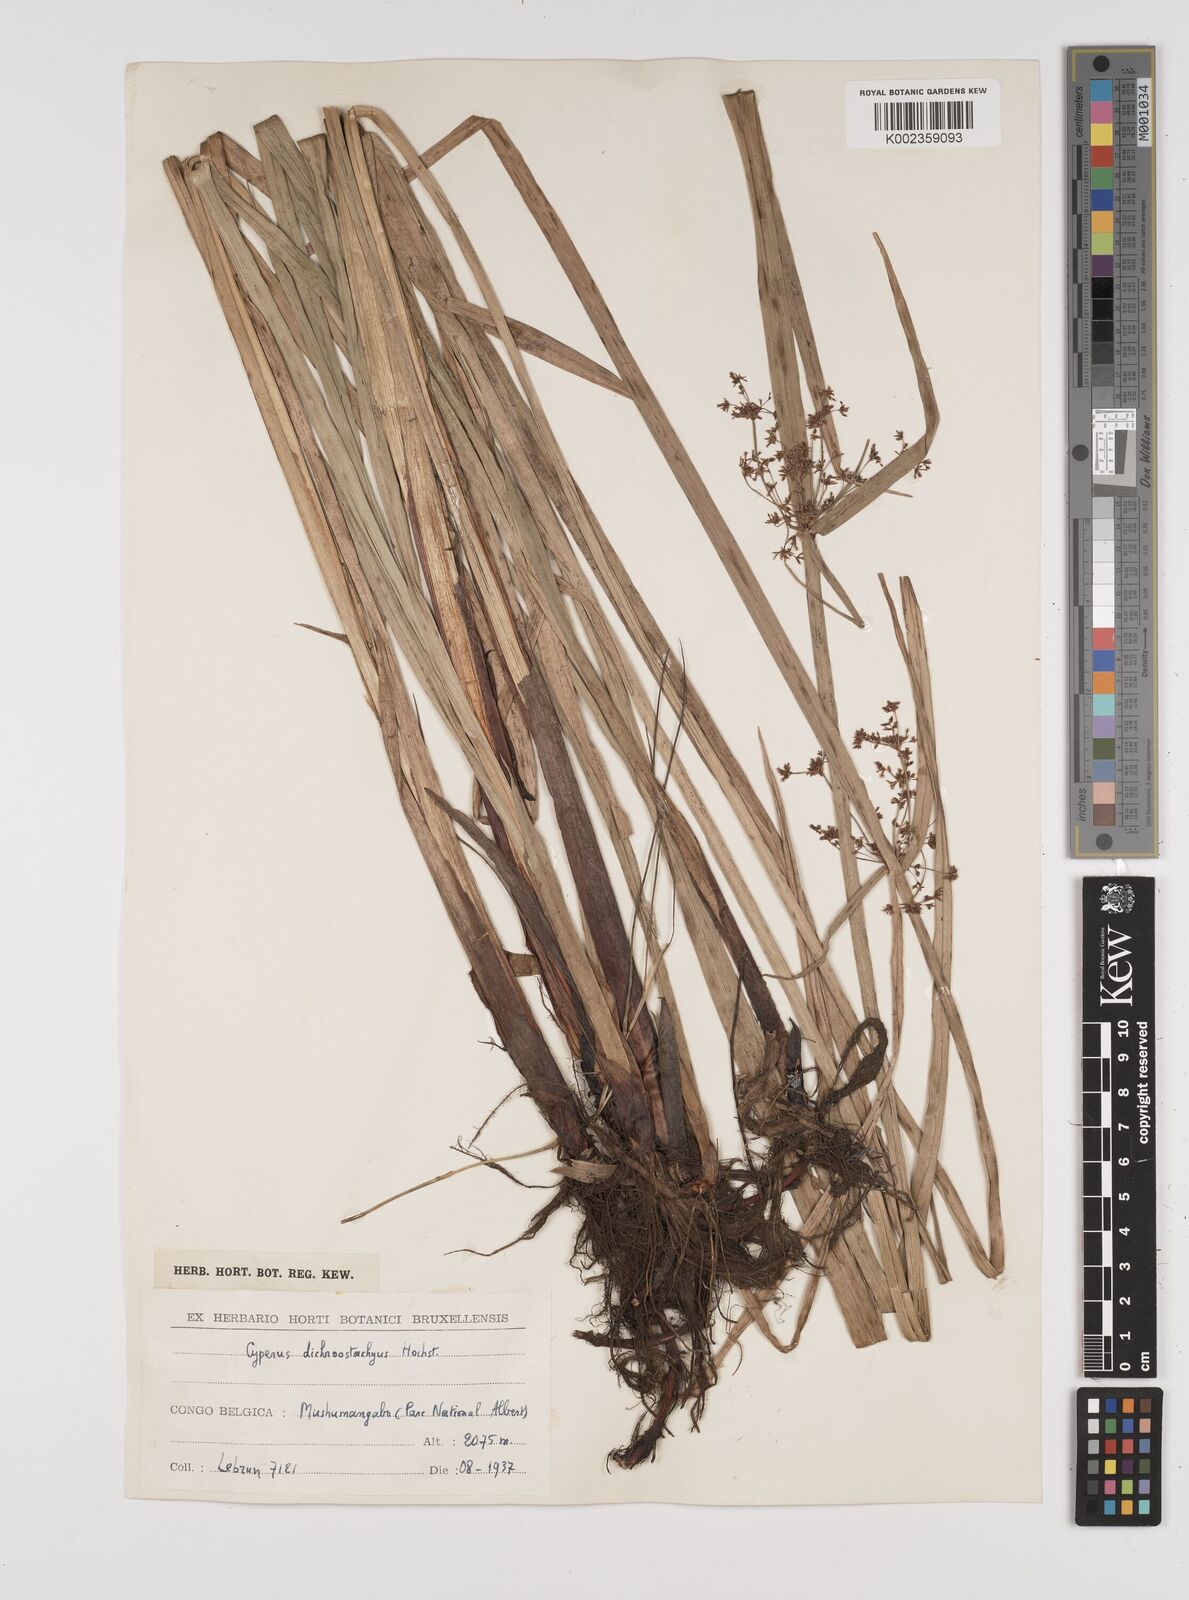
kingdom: Plantae
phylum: Tracheophyta
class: Liliopsida
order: Poales
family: Cyperaceae
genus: Cyperus
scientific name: Cyperus dichrostachyus
